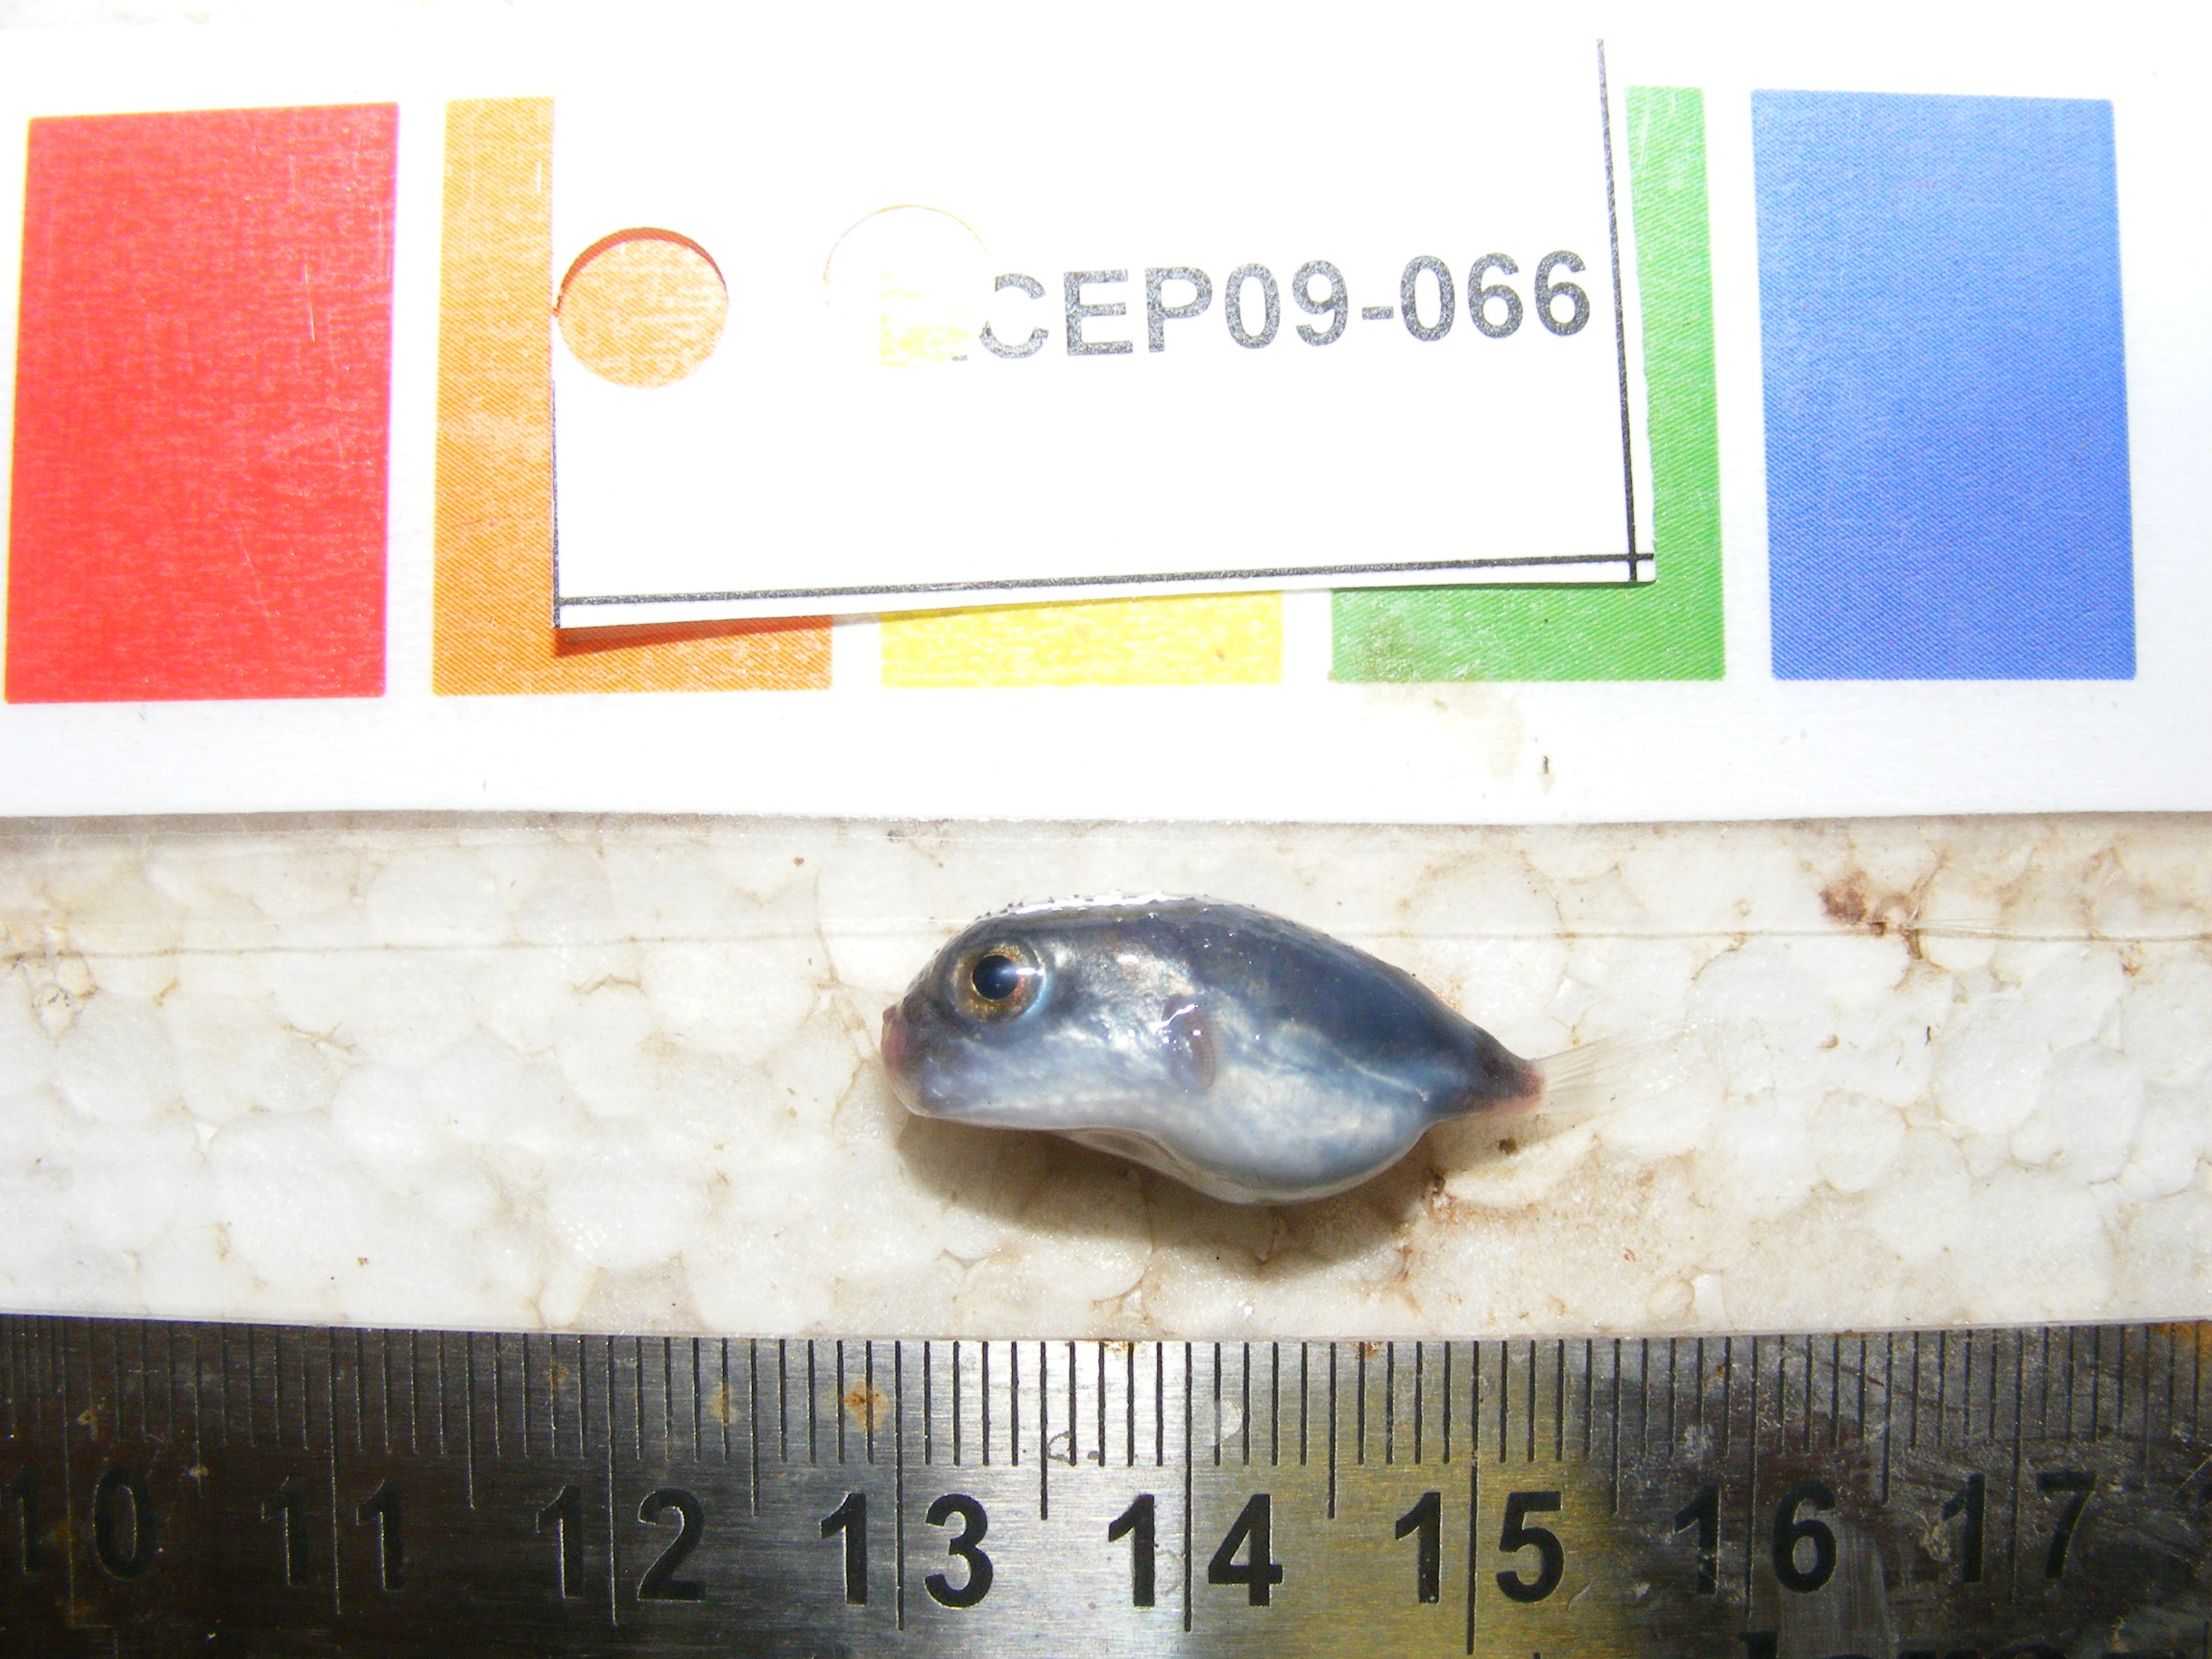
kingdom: Animalia
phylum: Chordata
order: Tetraodontiformes
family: Tetraodontidae
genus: Lagocephalus
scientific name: Lagocephalus
